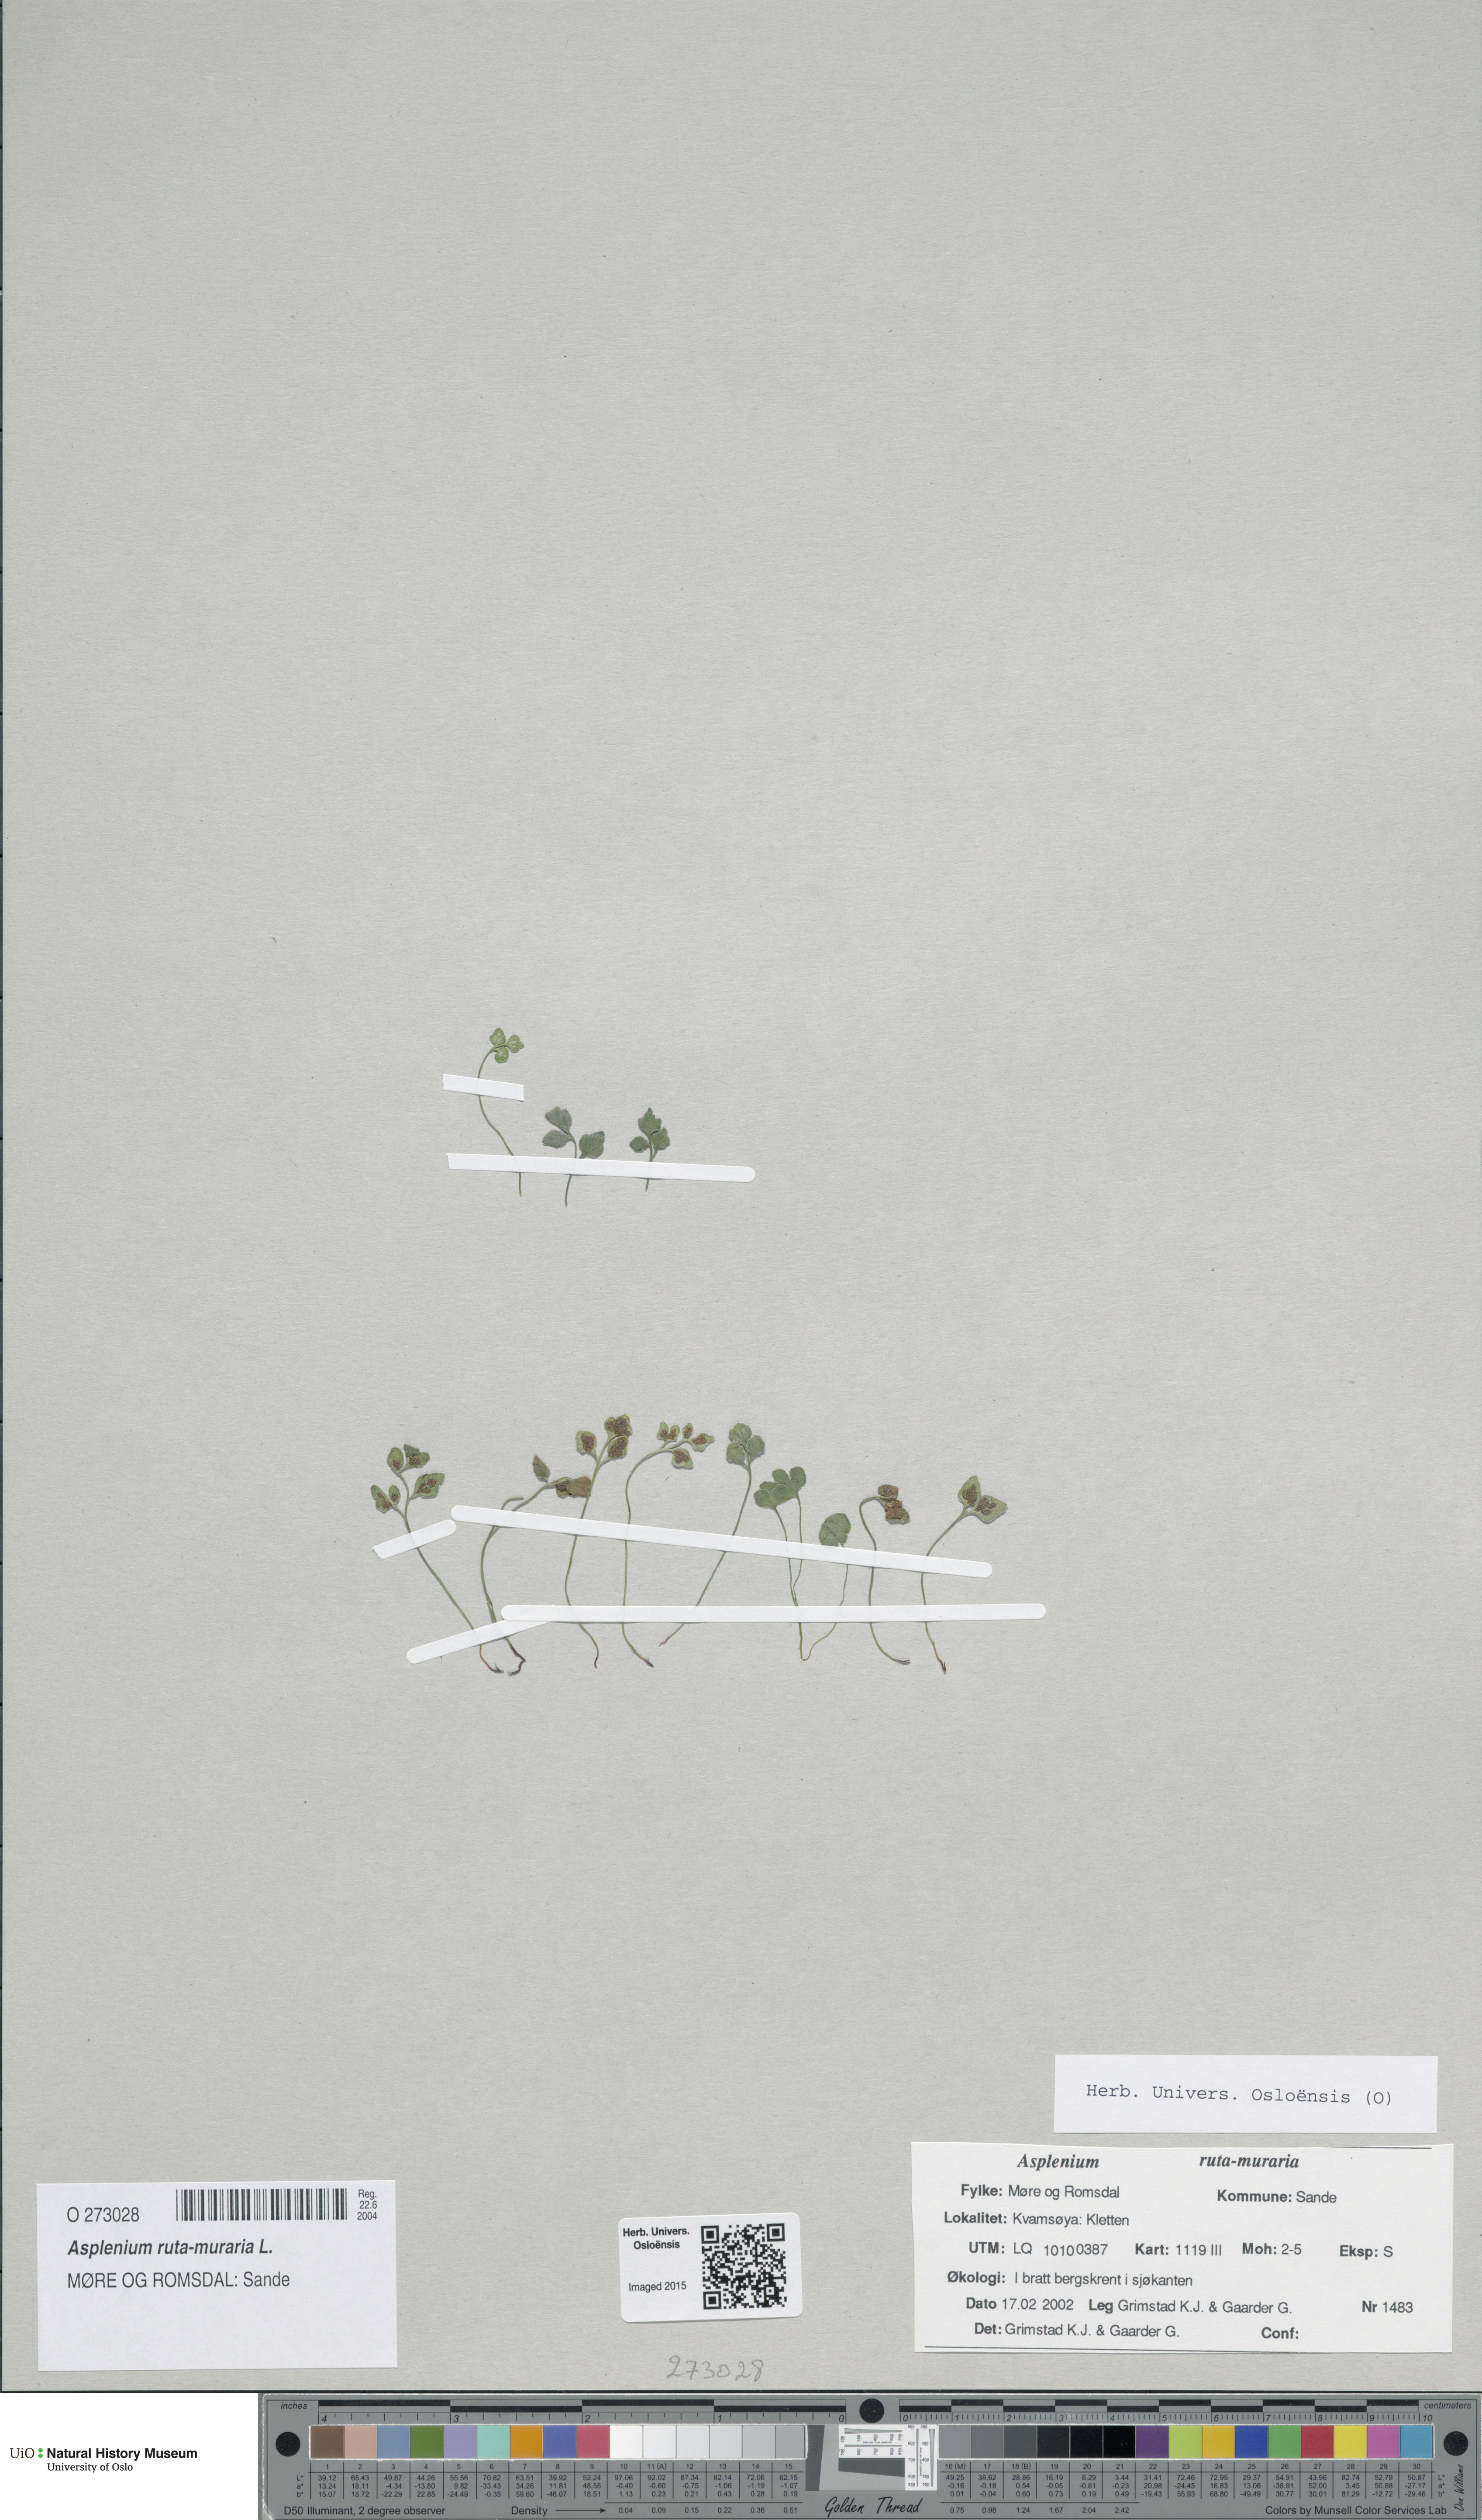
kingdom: Plantae
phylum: Tracheophyta
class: Polypodiopsida
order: Polypodiales
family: Aspleniaceae
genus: Asplenium
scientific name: Asplenium ruta-muraria
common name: Wall-rue
